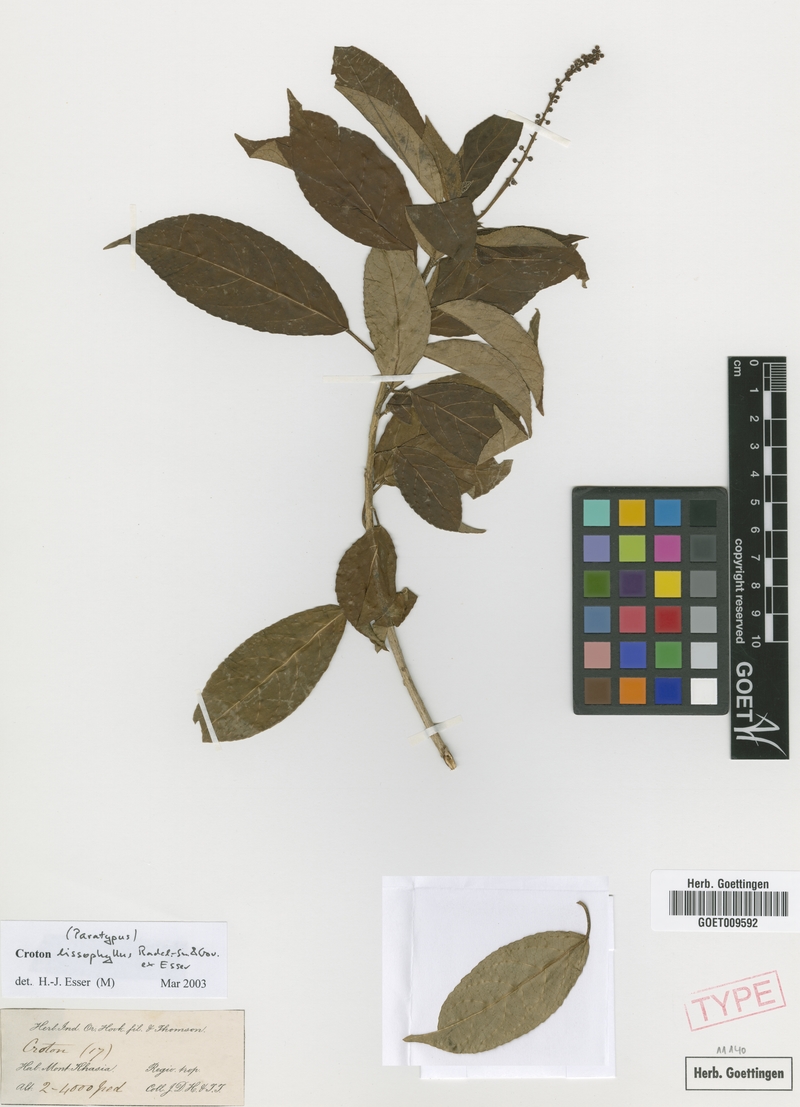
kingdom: Plantae
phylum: Tracheophyta
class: Magnoliopsida
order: Malpighiales
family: Euphorbiaceae
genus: Croton
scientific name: Croton lissophyllus
